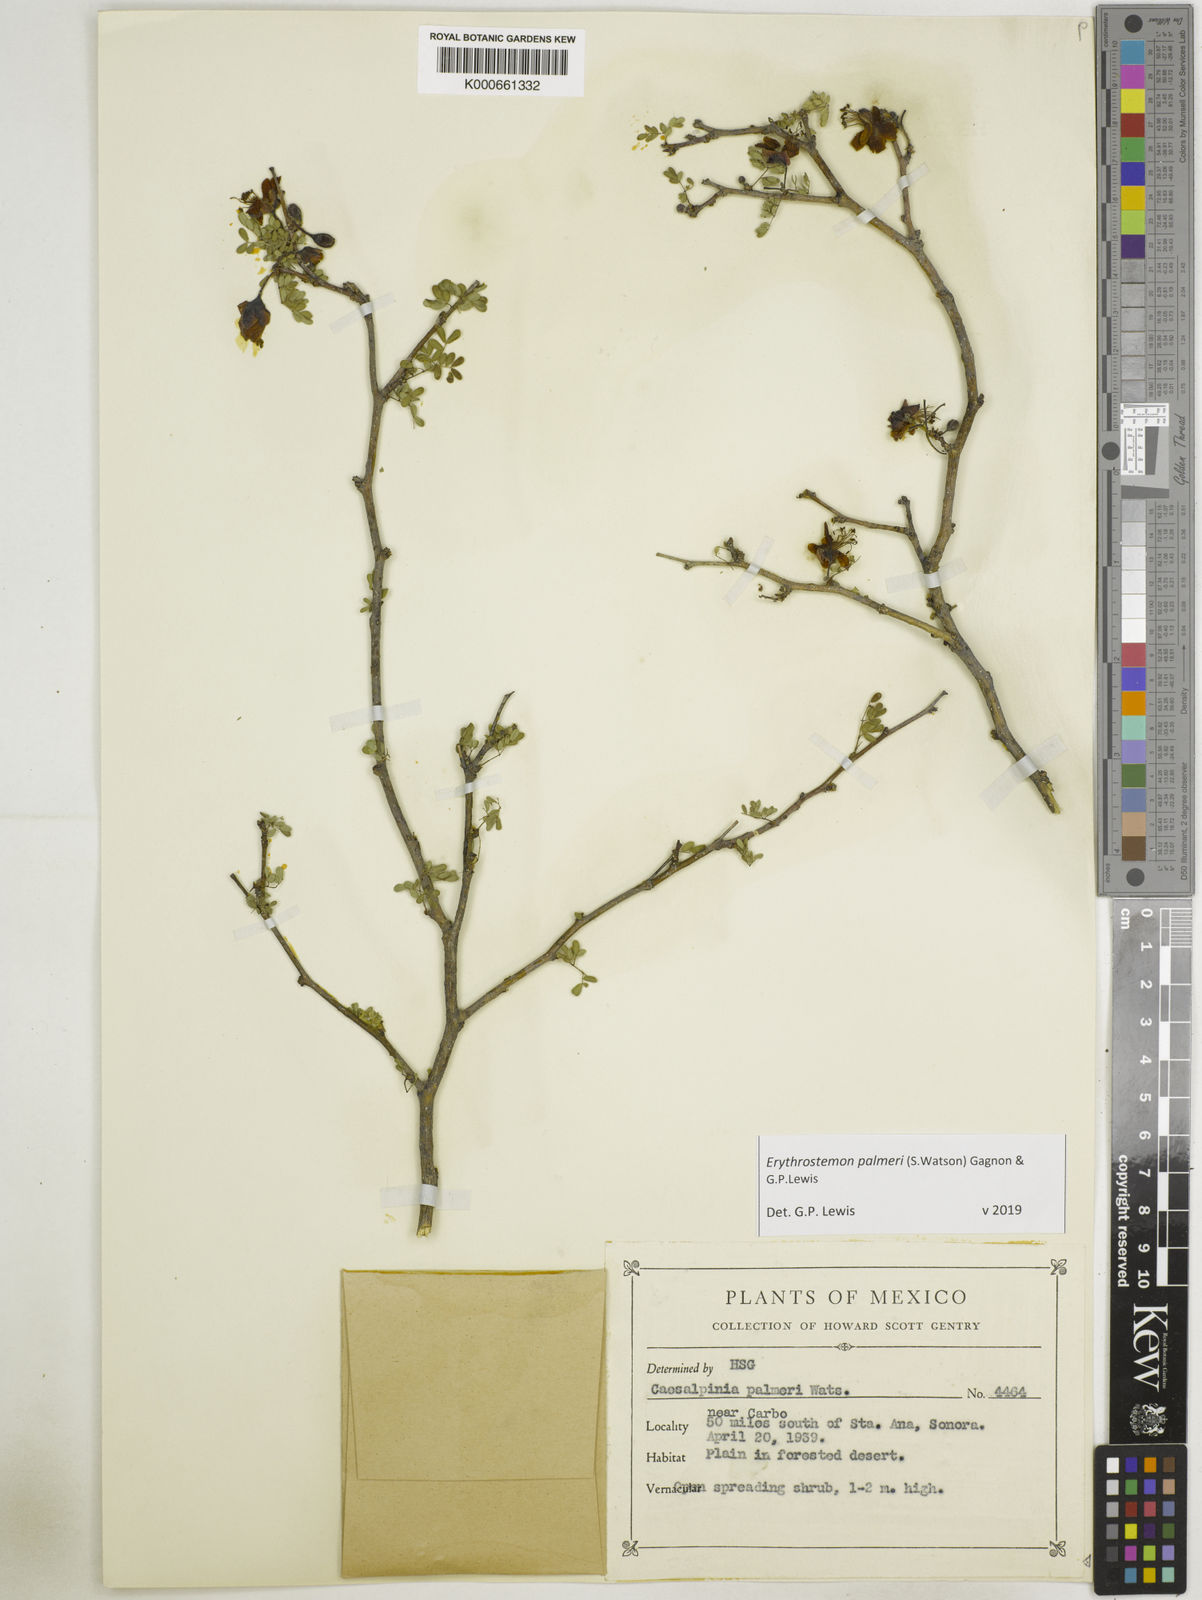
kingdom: Plantae
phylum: Tracheophyta
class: Magnoliopsida
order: Fabales
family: Fabaceae
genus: Erythrostemon
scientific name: Erythrostemon palmeri
